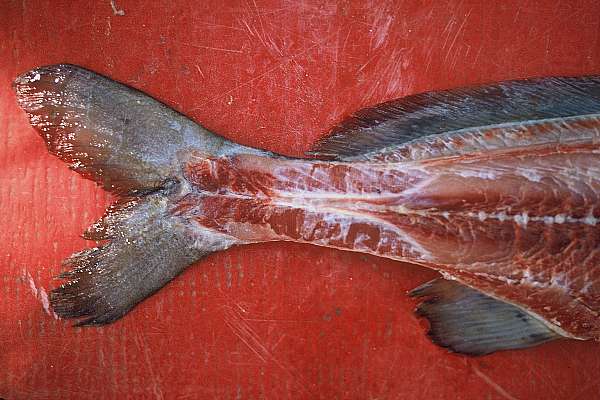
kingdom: Animalia
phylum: Chordata
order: Osteoglossiformes
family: Mormyridae
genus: Mormyrus
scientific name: Mormyrus lacerda
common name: Western bottlenose
